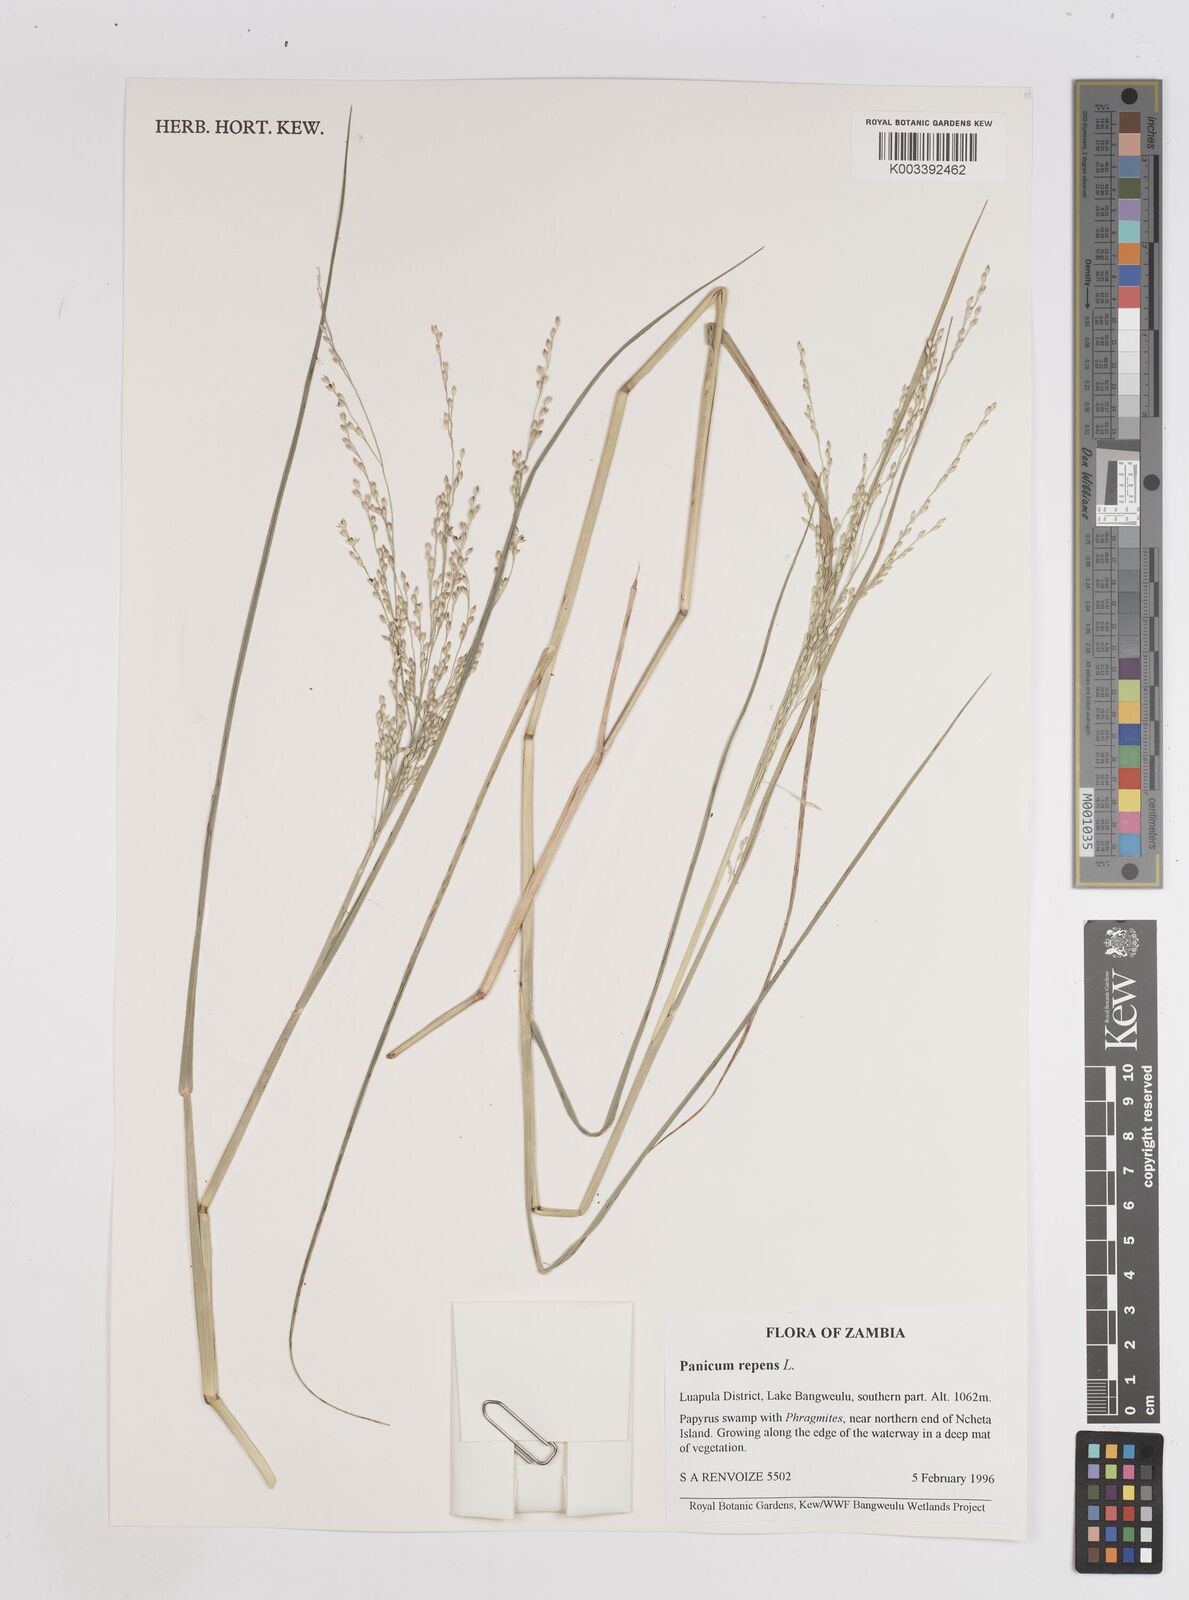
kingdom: Plantae
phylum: Tracheophyta
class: Liliopsida
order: Poales
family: Poaceae
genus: Panicum
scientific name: Panicum repens
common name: Torpedo grass
